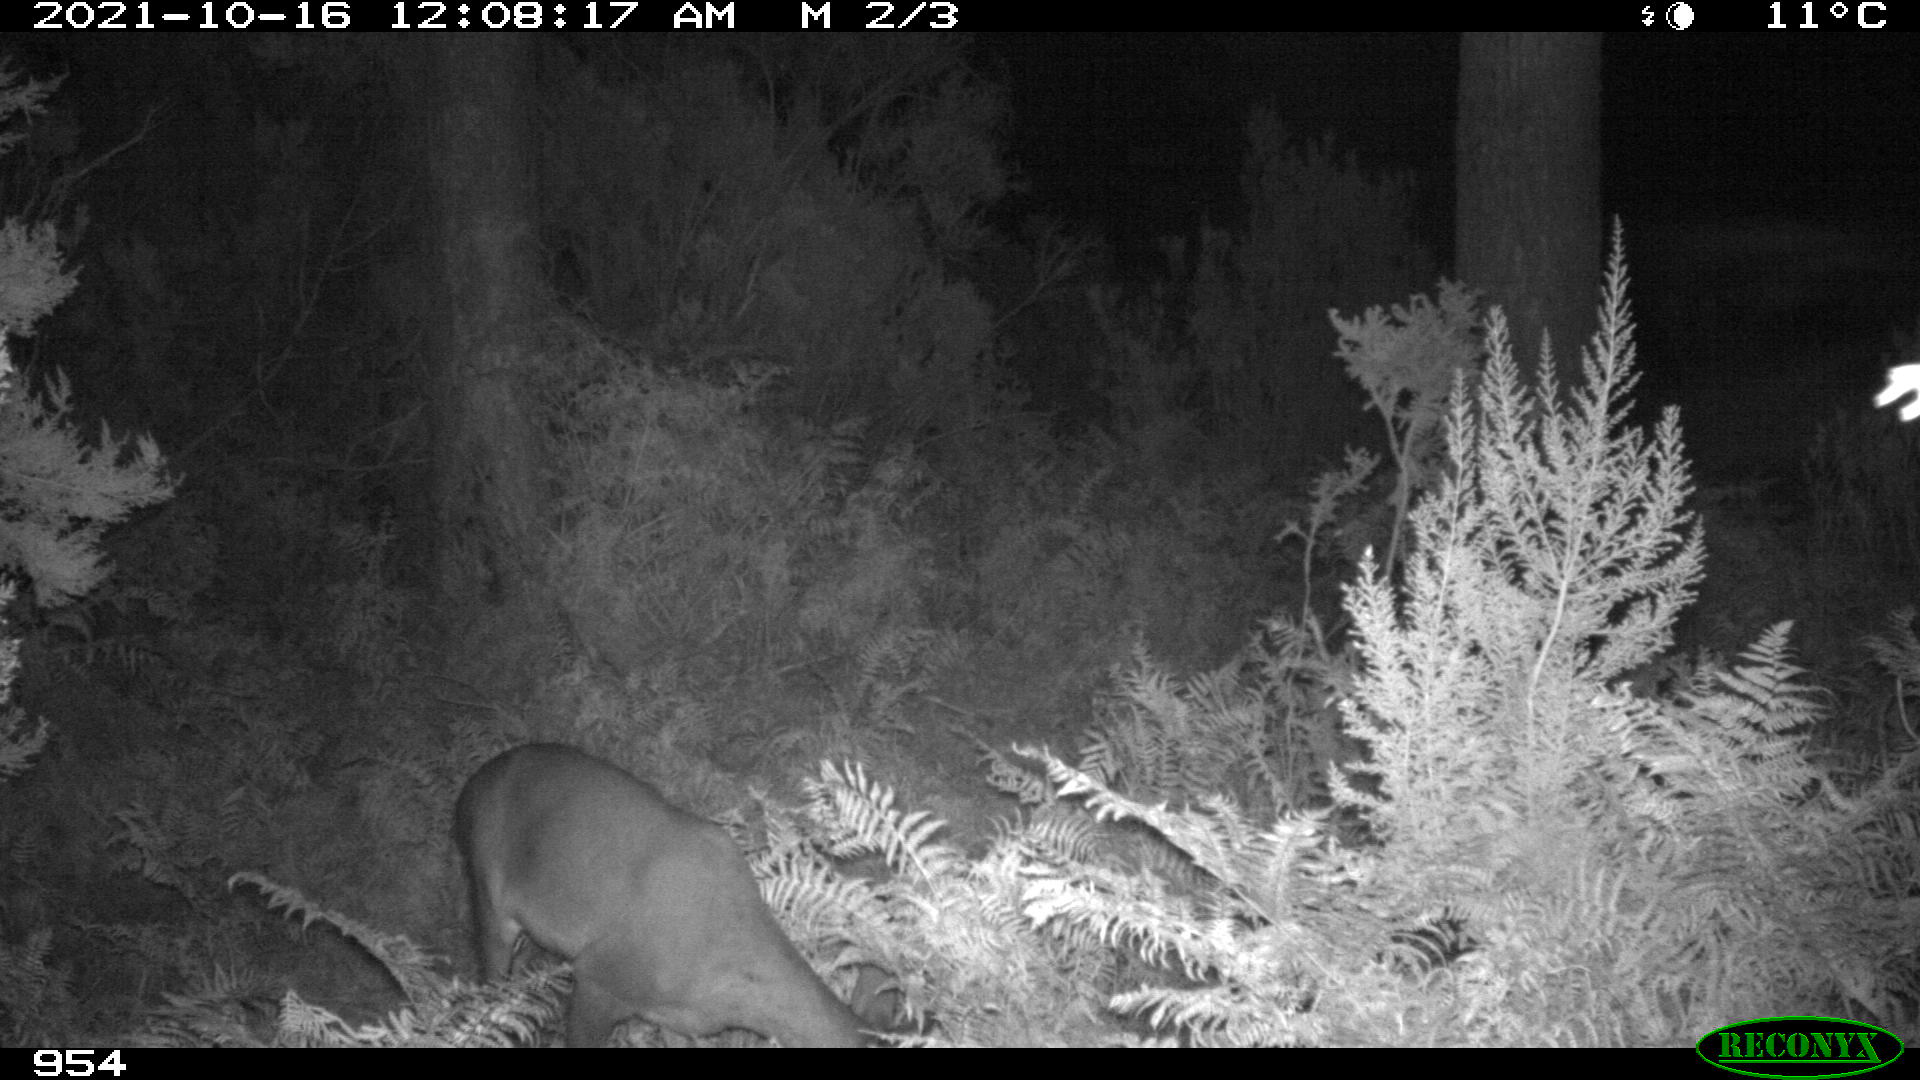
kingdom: Animalia
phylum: Chordata
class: Mammalia
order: Artiodactyla
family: Cervidae
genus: Capreolus
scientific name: Capreolus capreolus
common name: Western roe deer
